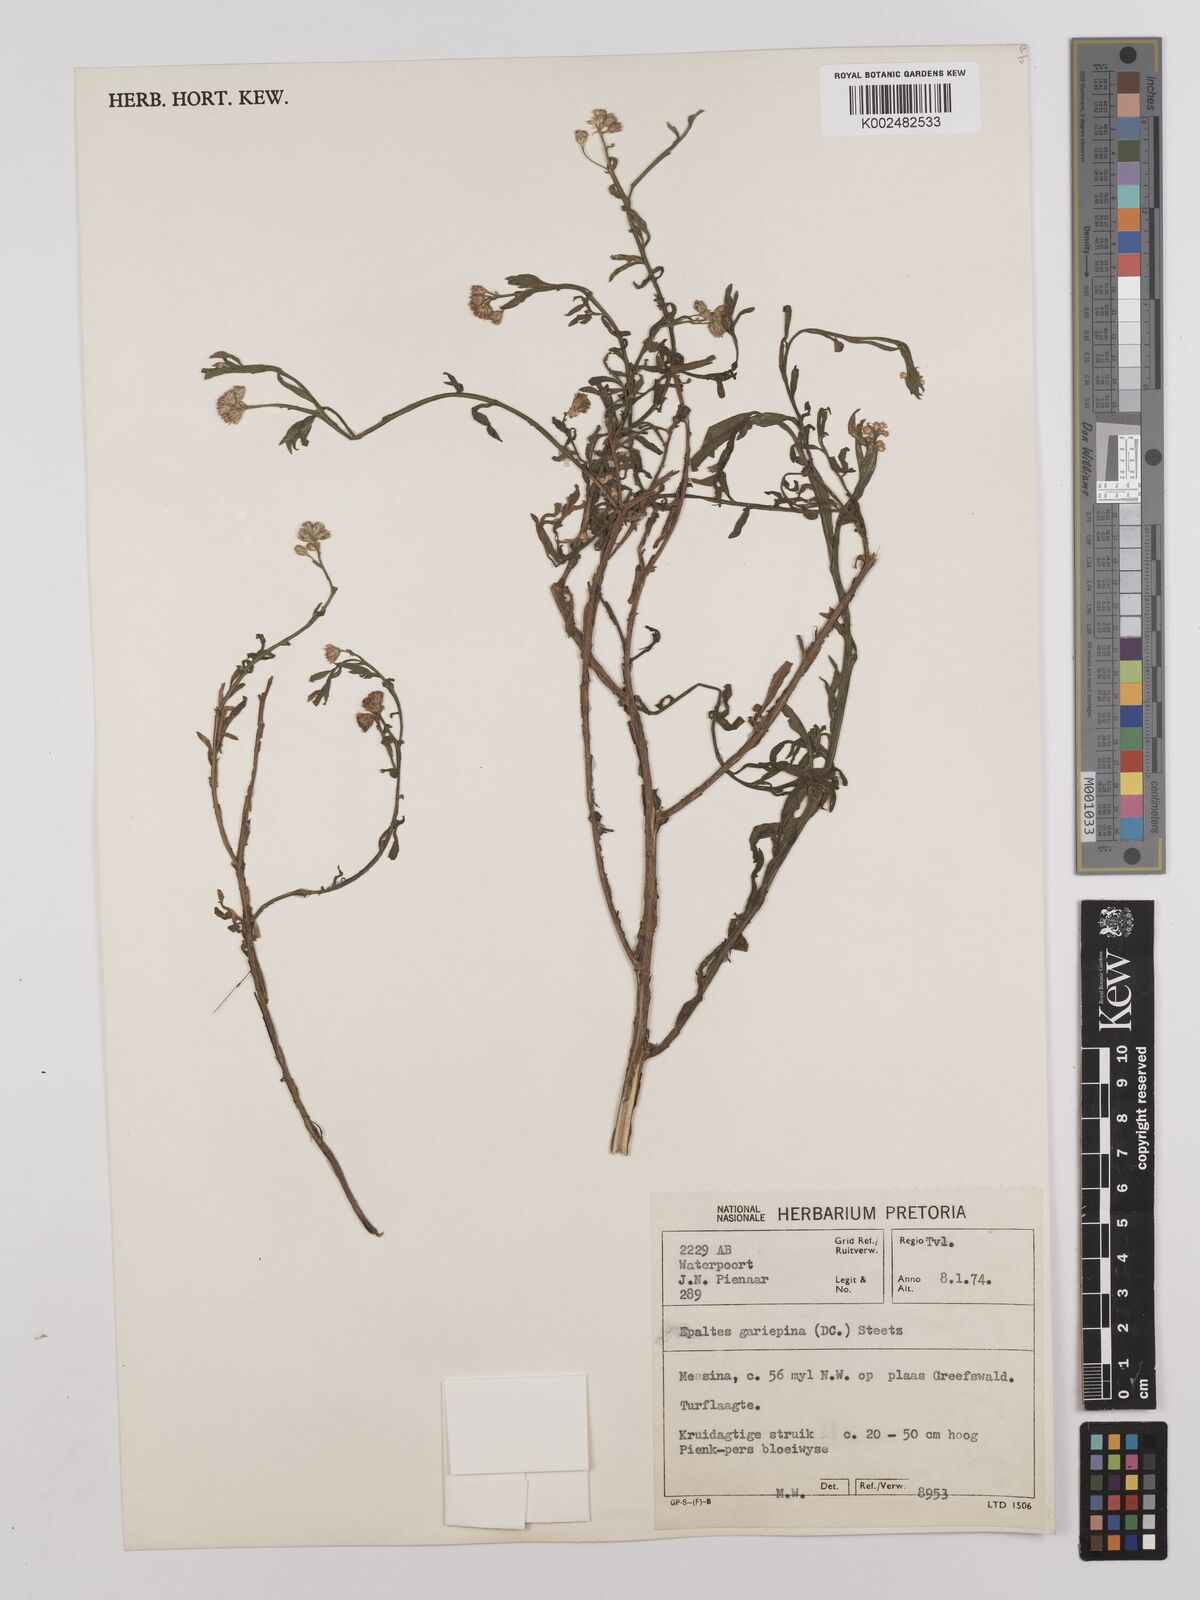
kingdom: Plantae
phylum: Tracheophyta
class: Magnoliopsida
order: Asterales
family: Asteraceae
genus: Litogyne
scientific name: Litogyne gariepina
